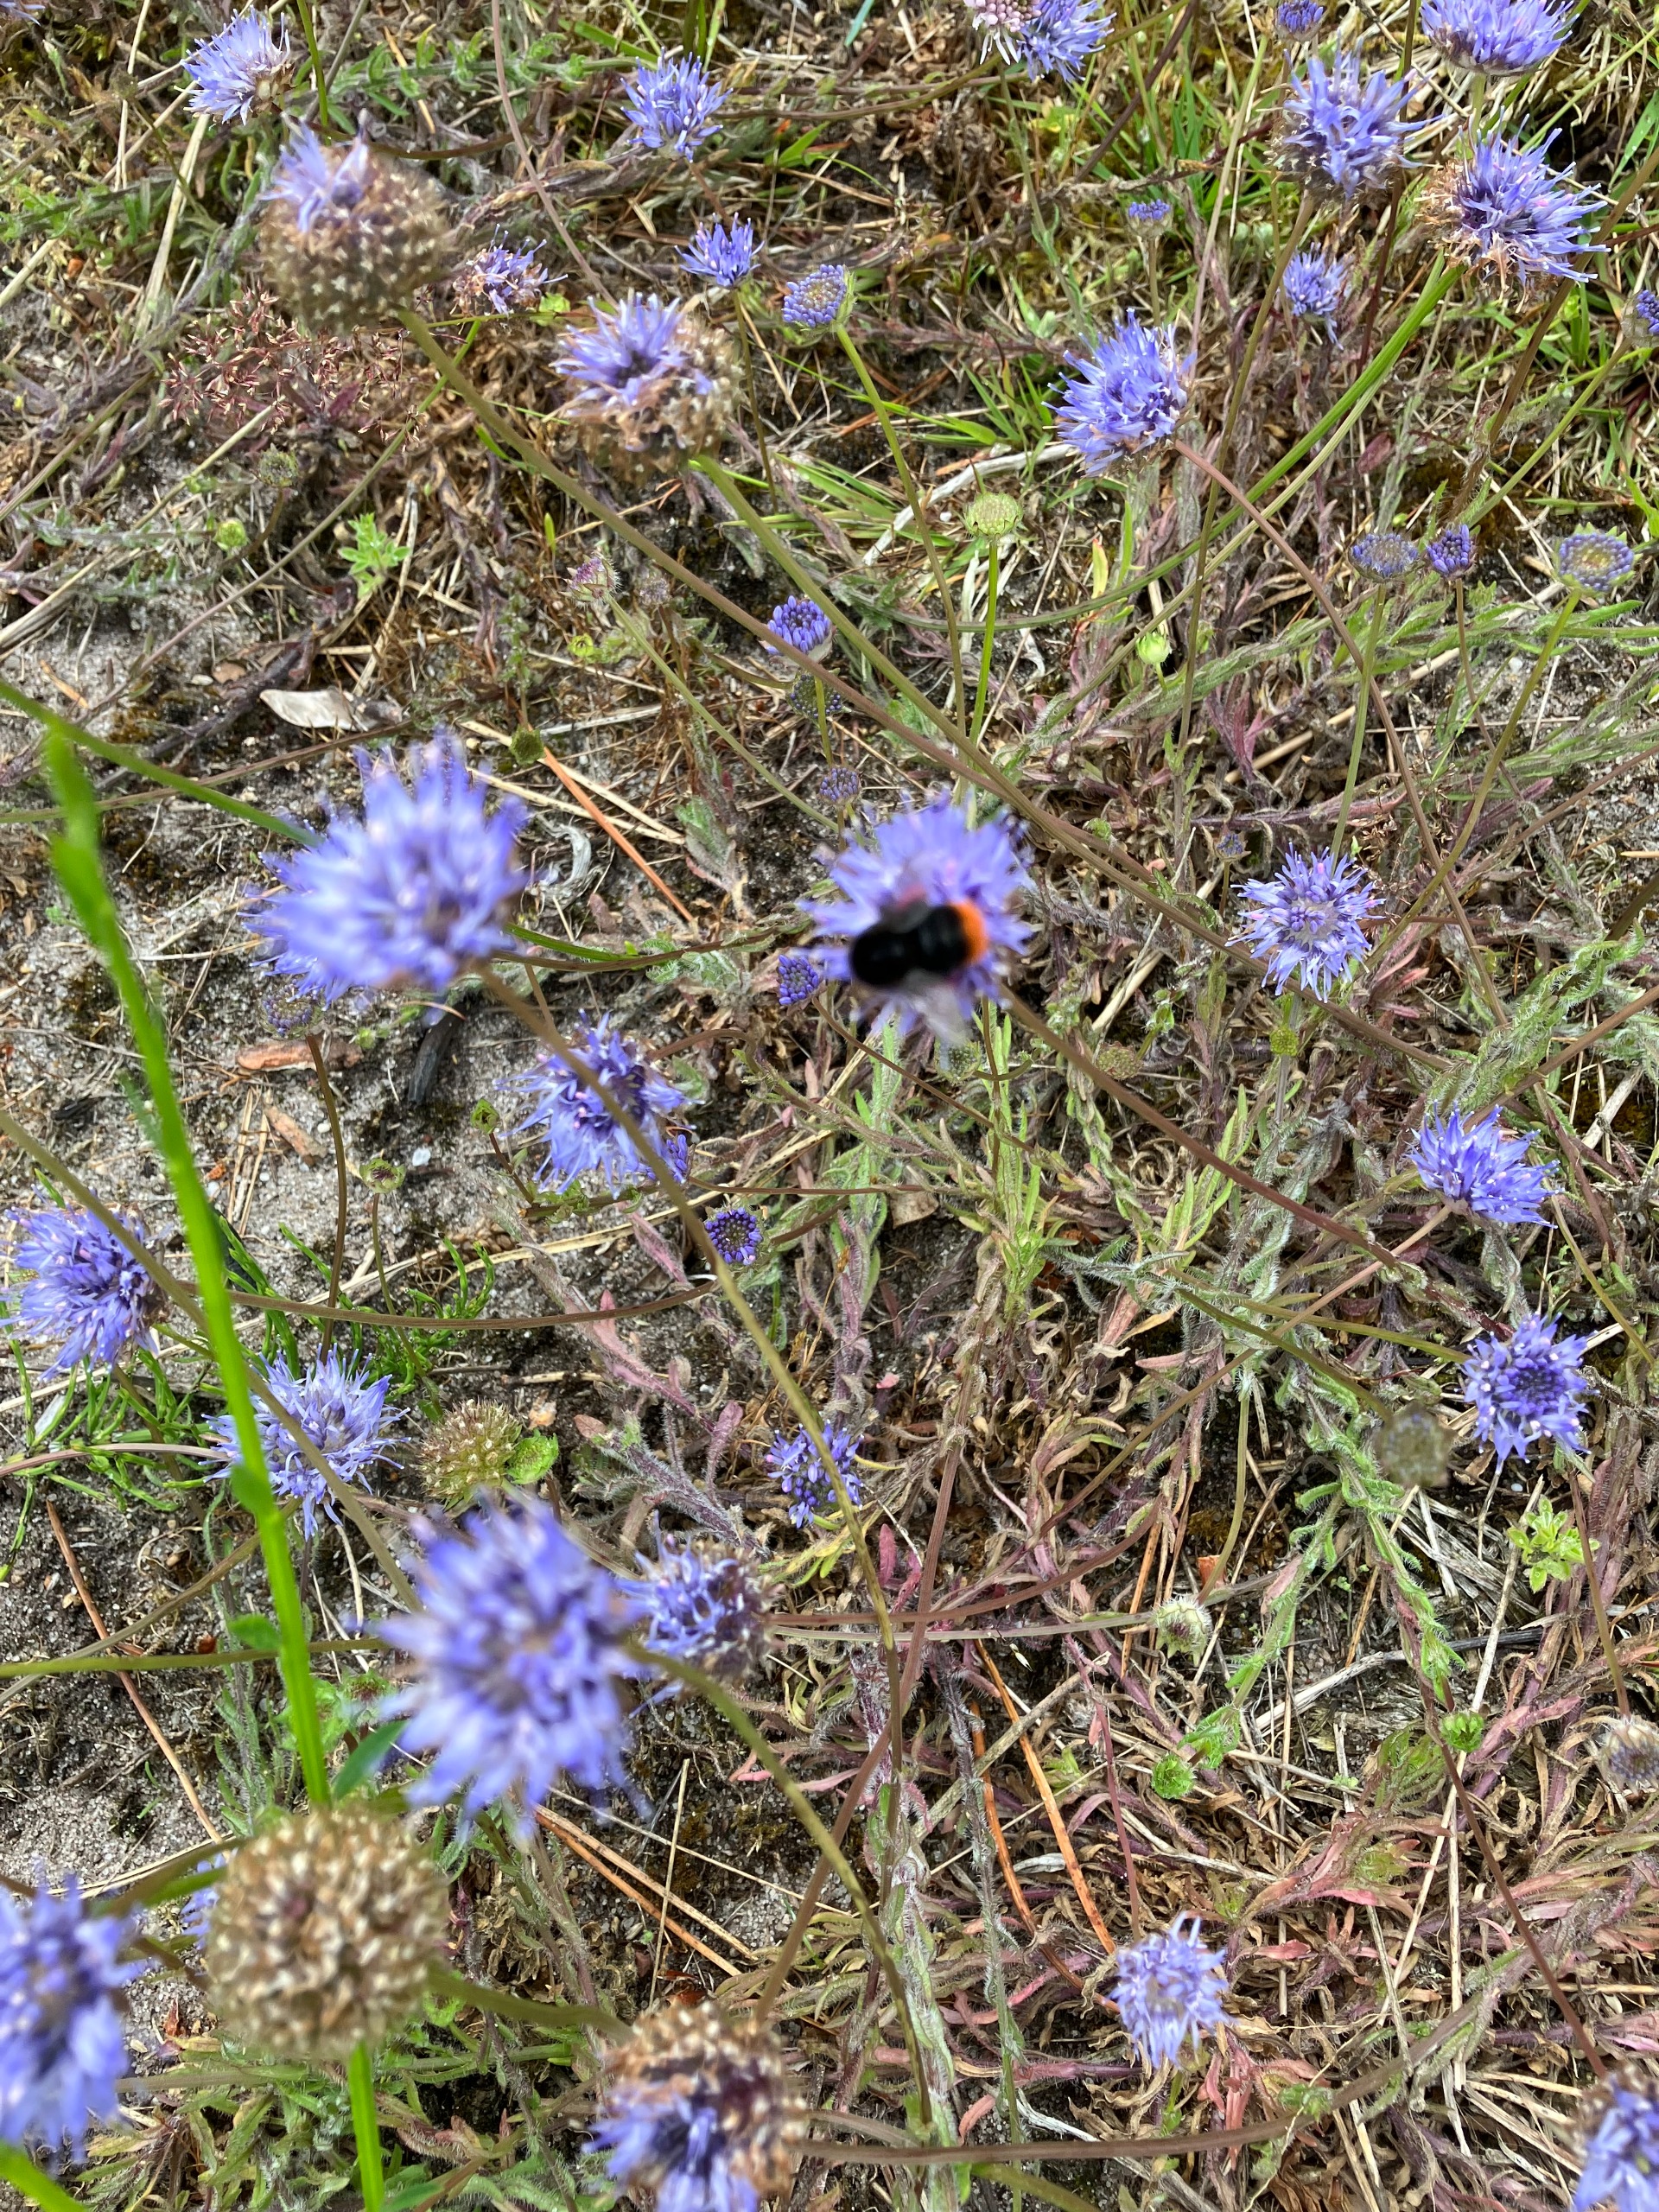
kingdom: Plantae
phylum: Tracheophyta
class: Magnoliopsida
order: Asterales
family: Campanulaceae
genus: Jasione
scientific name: Jasione montana
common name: Blåmunke
